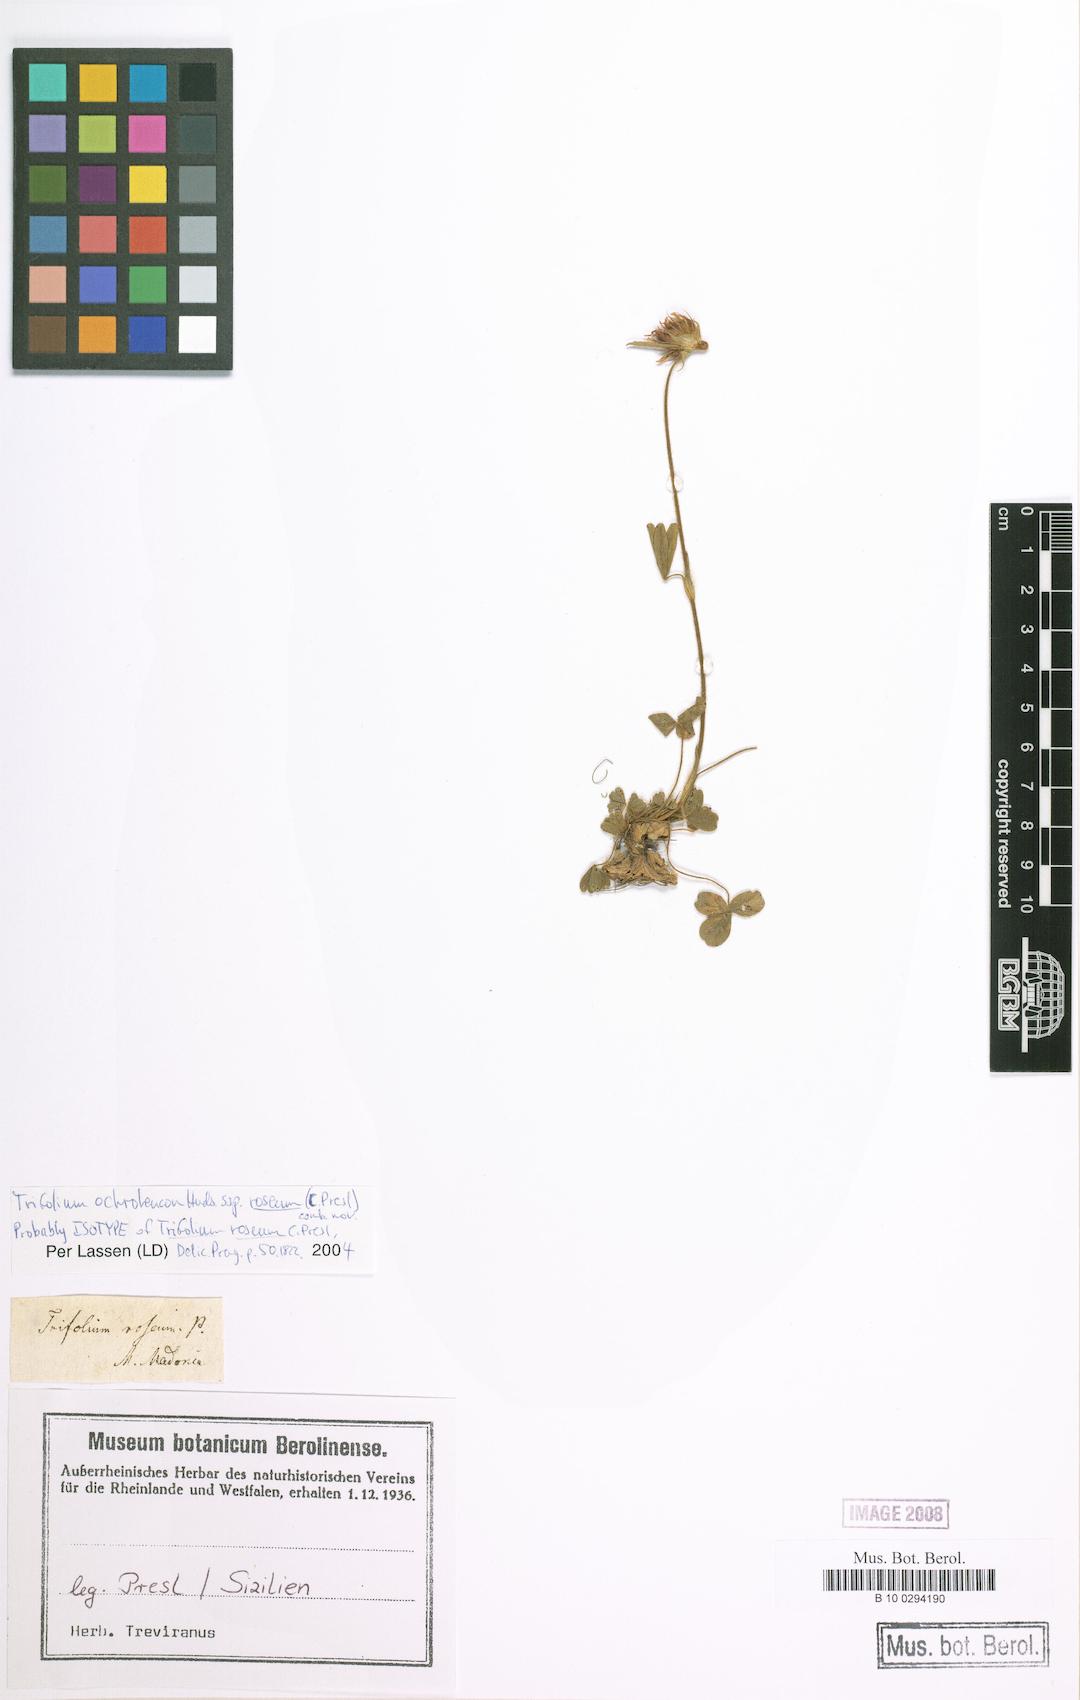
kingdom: Plantae
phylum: Tracheophyta
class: Magnoliopsida
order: Fabales
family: Fabaceae
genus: Trifolium
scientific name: Trifolium ochroleucon
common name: Sulphur clover
